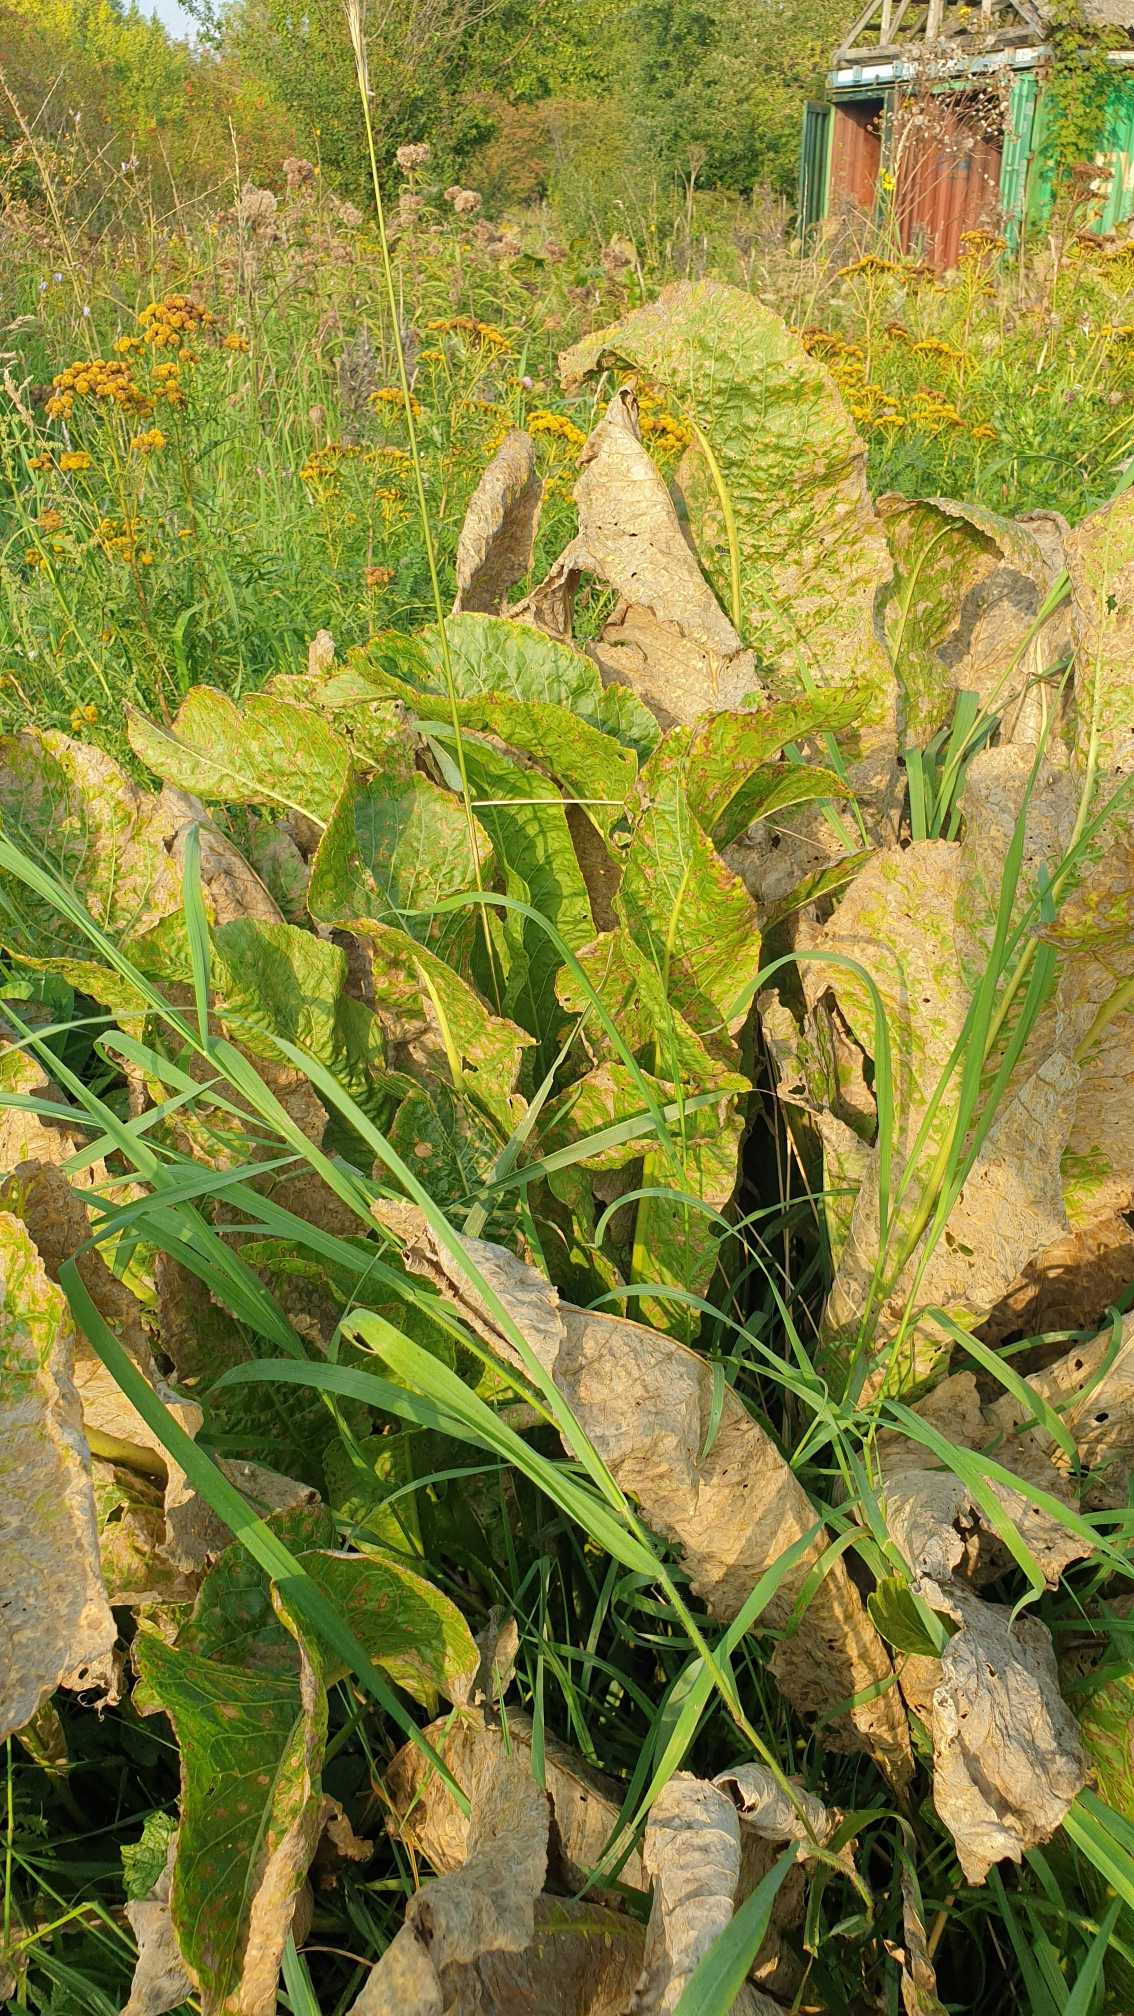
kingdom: Plantae
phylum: Tracheophyta
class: Magnoliopsida
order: Brassicales
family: Brassicaceae
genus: Armoracia
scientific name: Armoracia rusticana
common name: Peberrod
